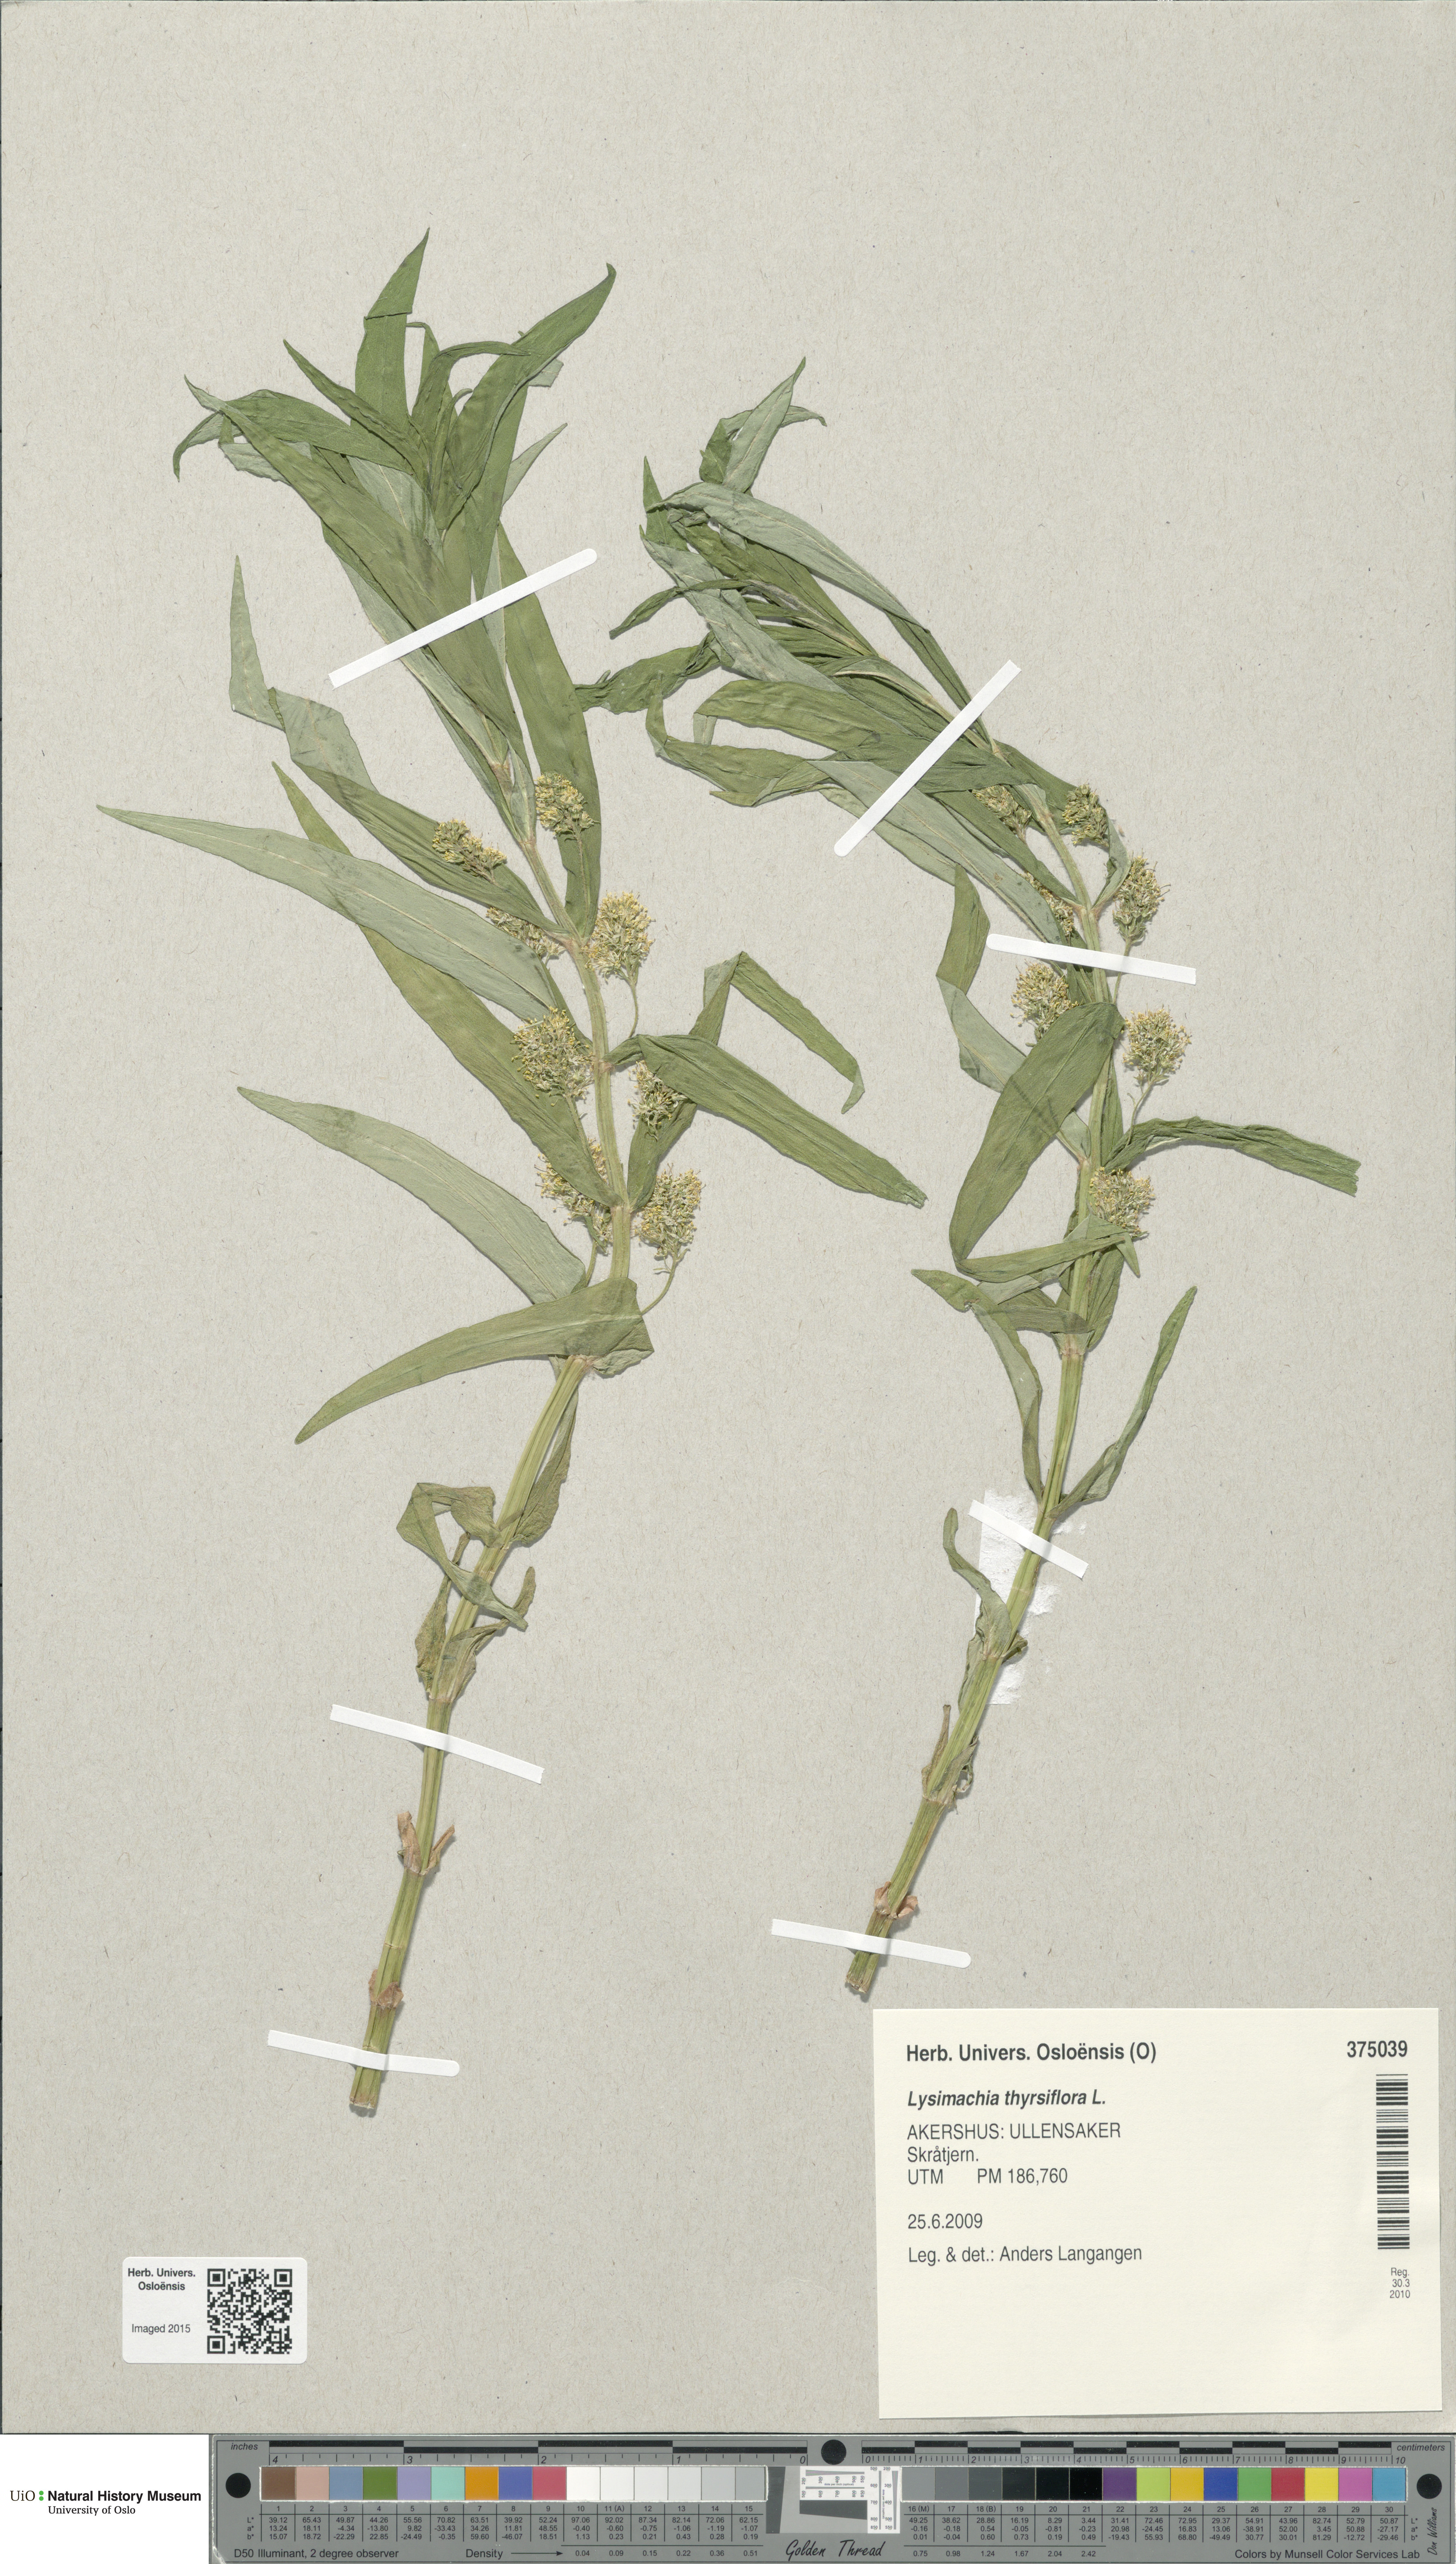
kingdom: Plantae
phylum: Tracheophyta
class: Magnoliopsida
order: Ericales
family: Primulaceae
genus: Lysimachia
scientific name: Lysimachia thyrsiflora
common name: Tufted loosestrife
